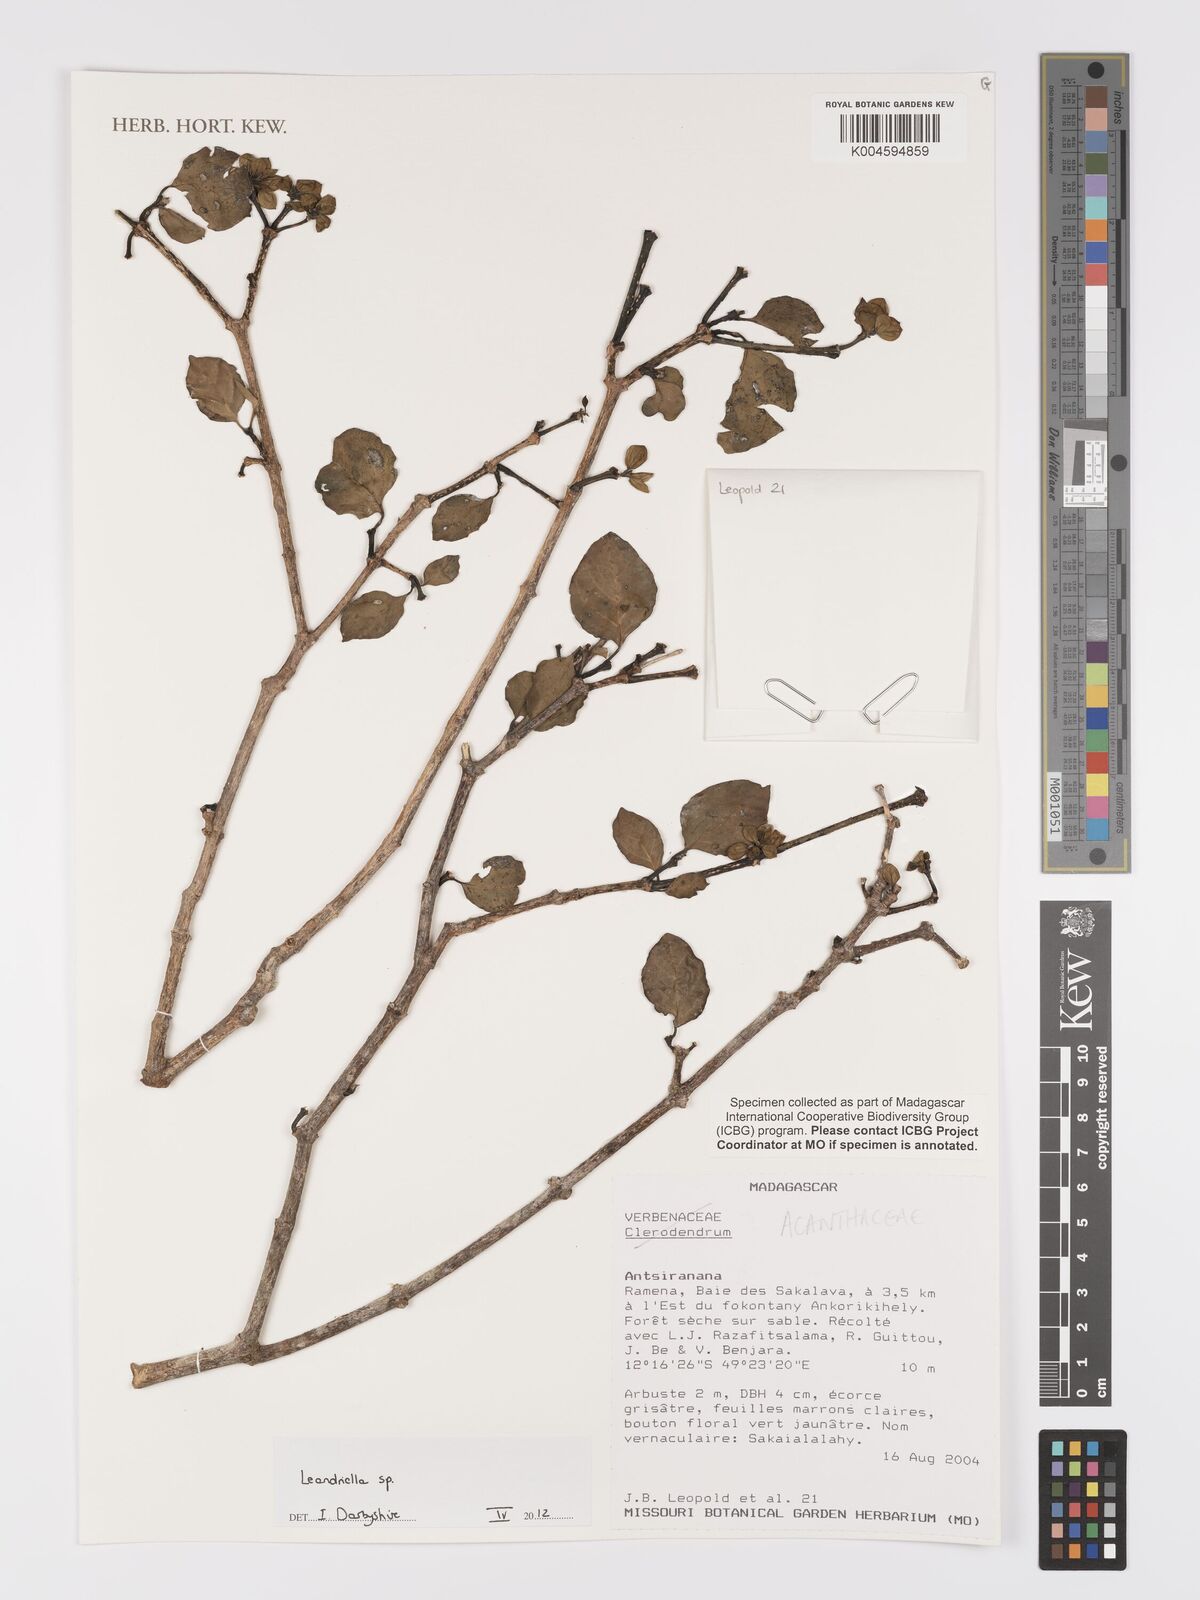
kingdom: Plantae
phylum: Tracheophyta
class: Magnoliopsida
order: Lamiales
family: Acanthaceae
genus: Leandriella
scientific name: Leandriella
